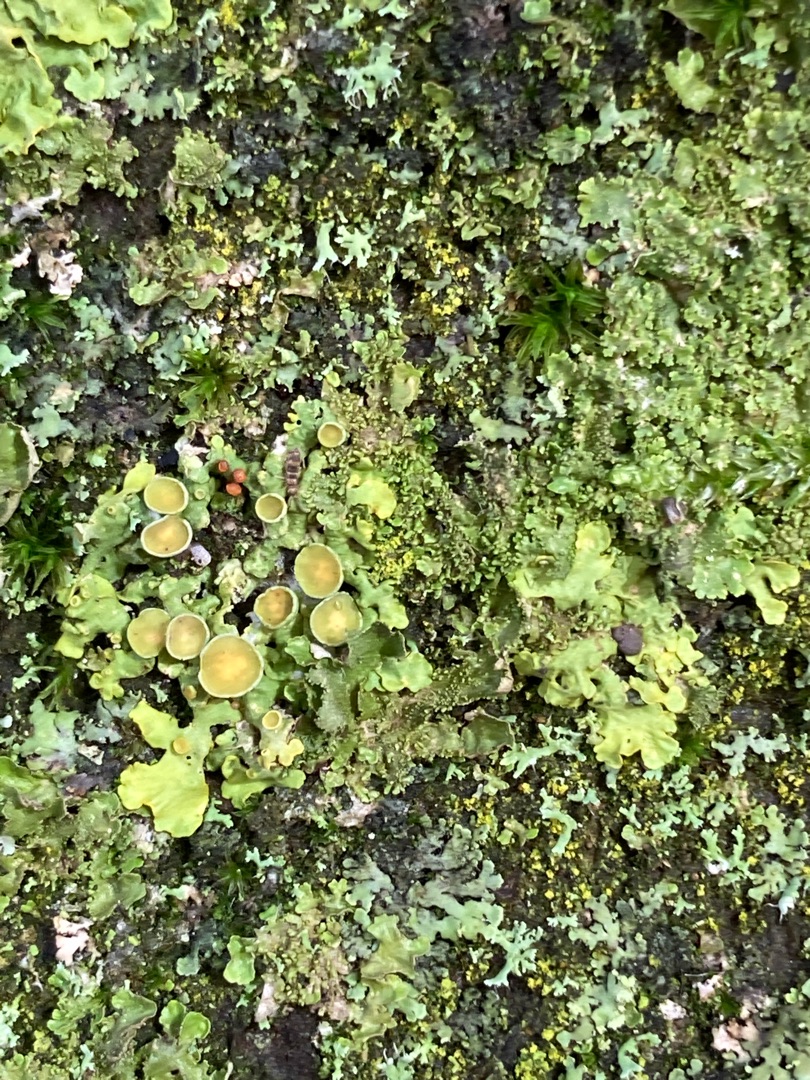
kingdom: Fungi
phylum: Ascomycota
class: Lecanoromycetes
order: Teloschistales
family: Teloschistaceae
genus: Xanthoria
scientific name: Xanthoria parietina
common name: Almindelig væggelav
